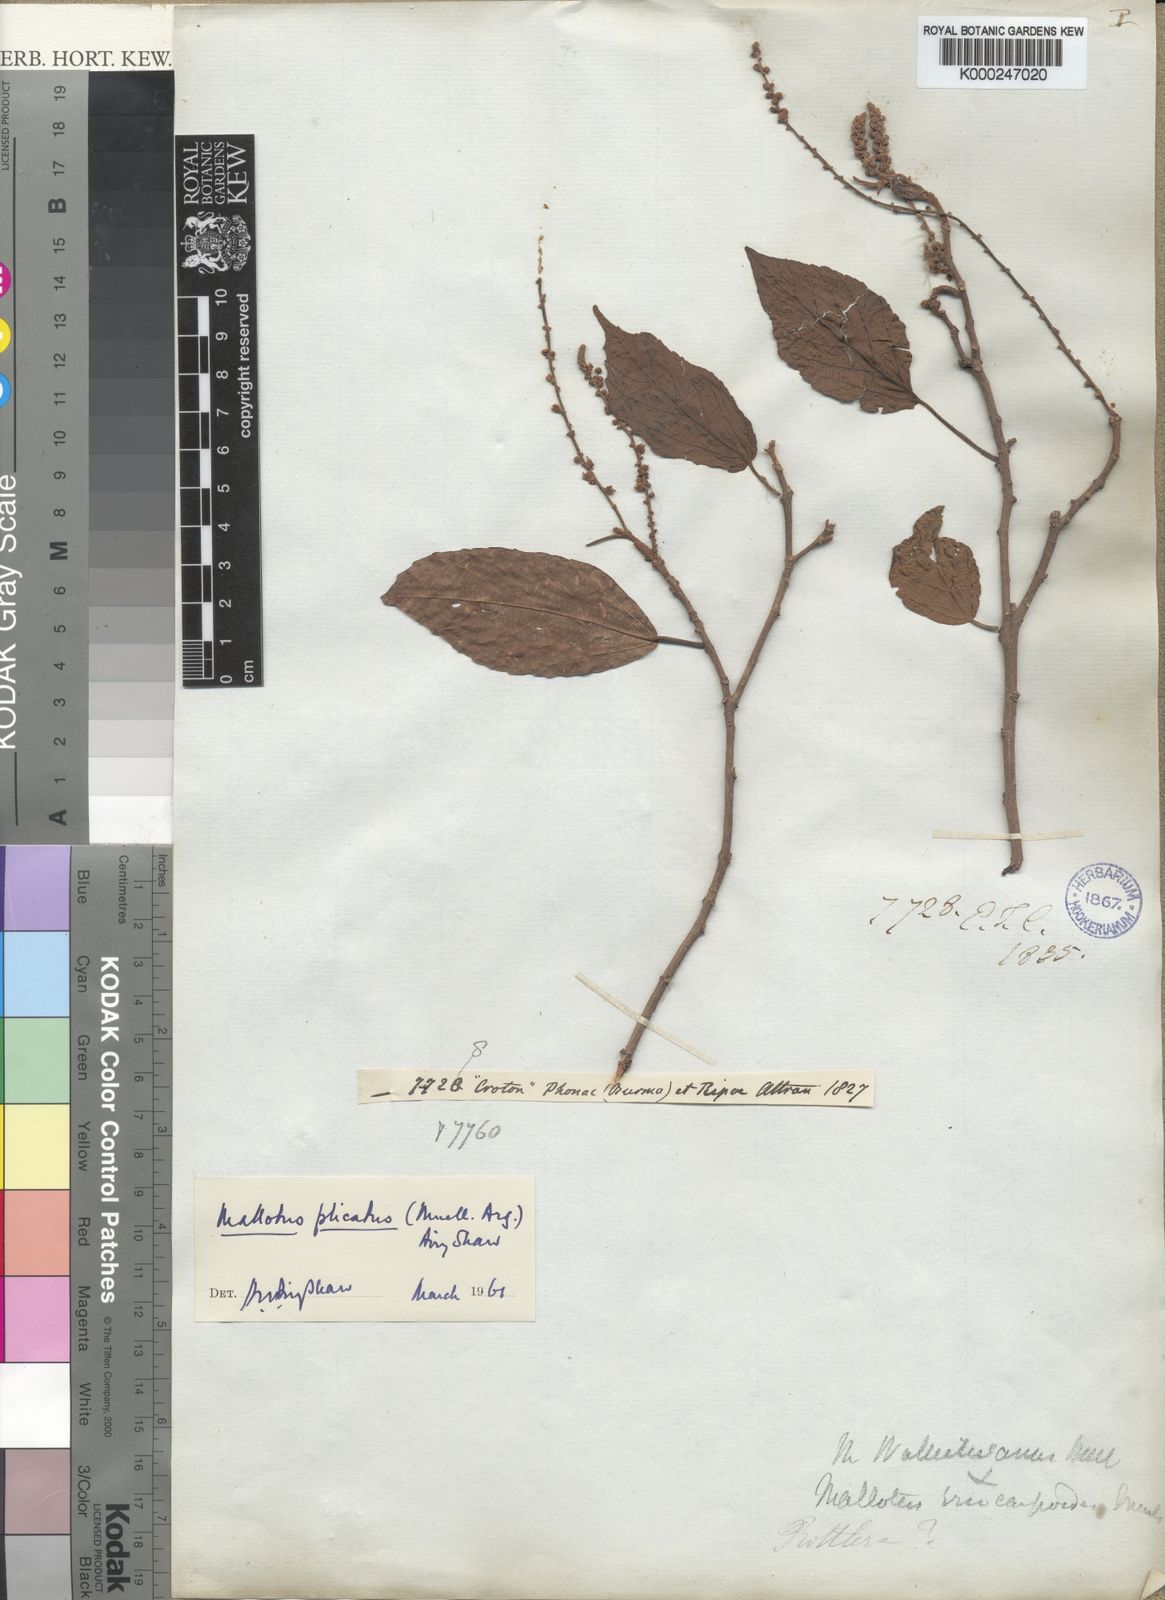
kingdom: Plantae
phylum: Tracheophyta
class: Magnoliopsida
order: Malpighiales
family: Euphorbiaceae
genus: Mallotus
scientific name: Mallotus
